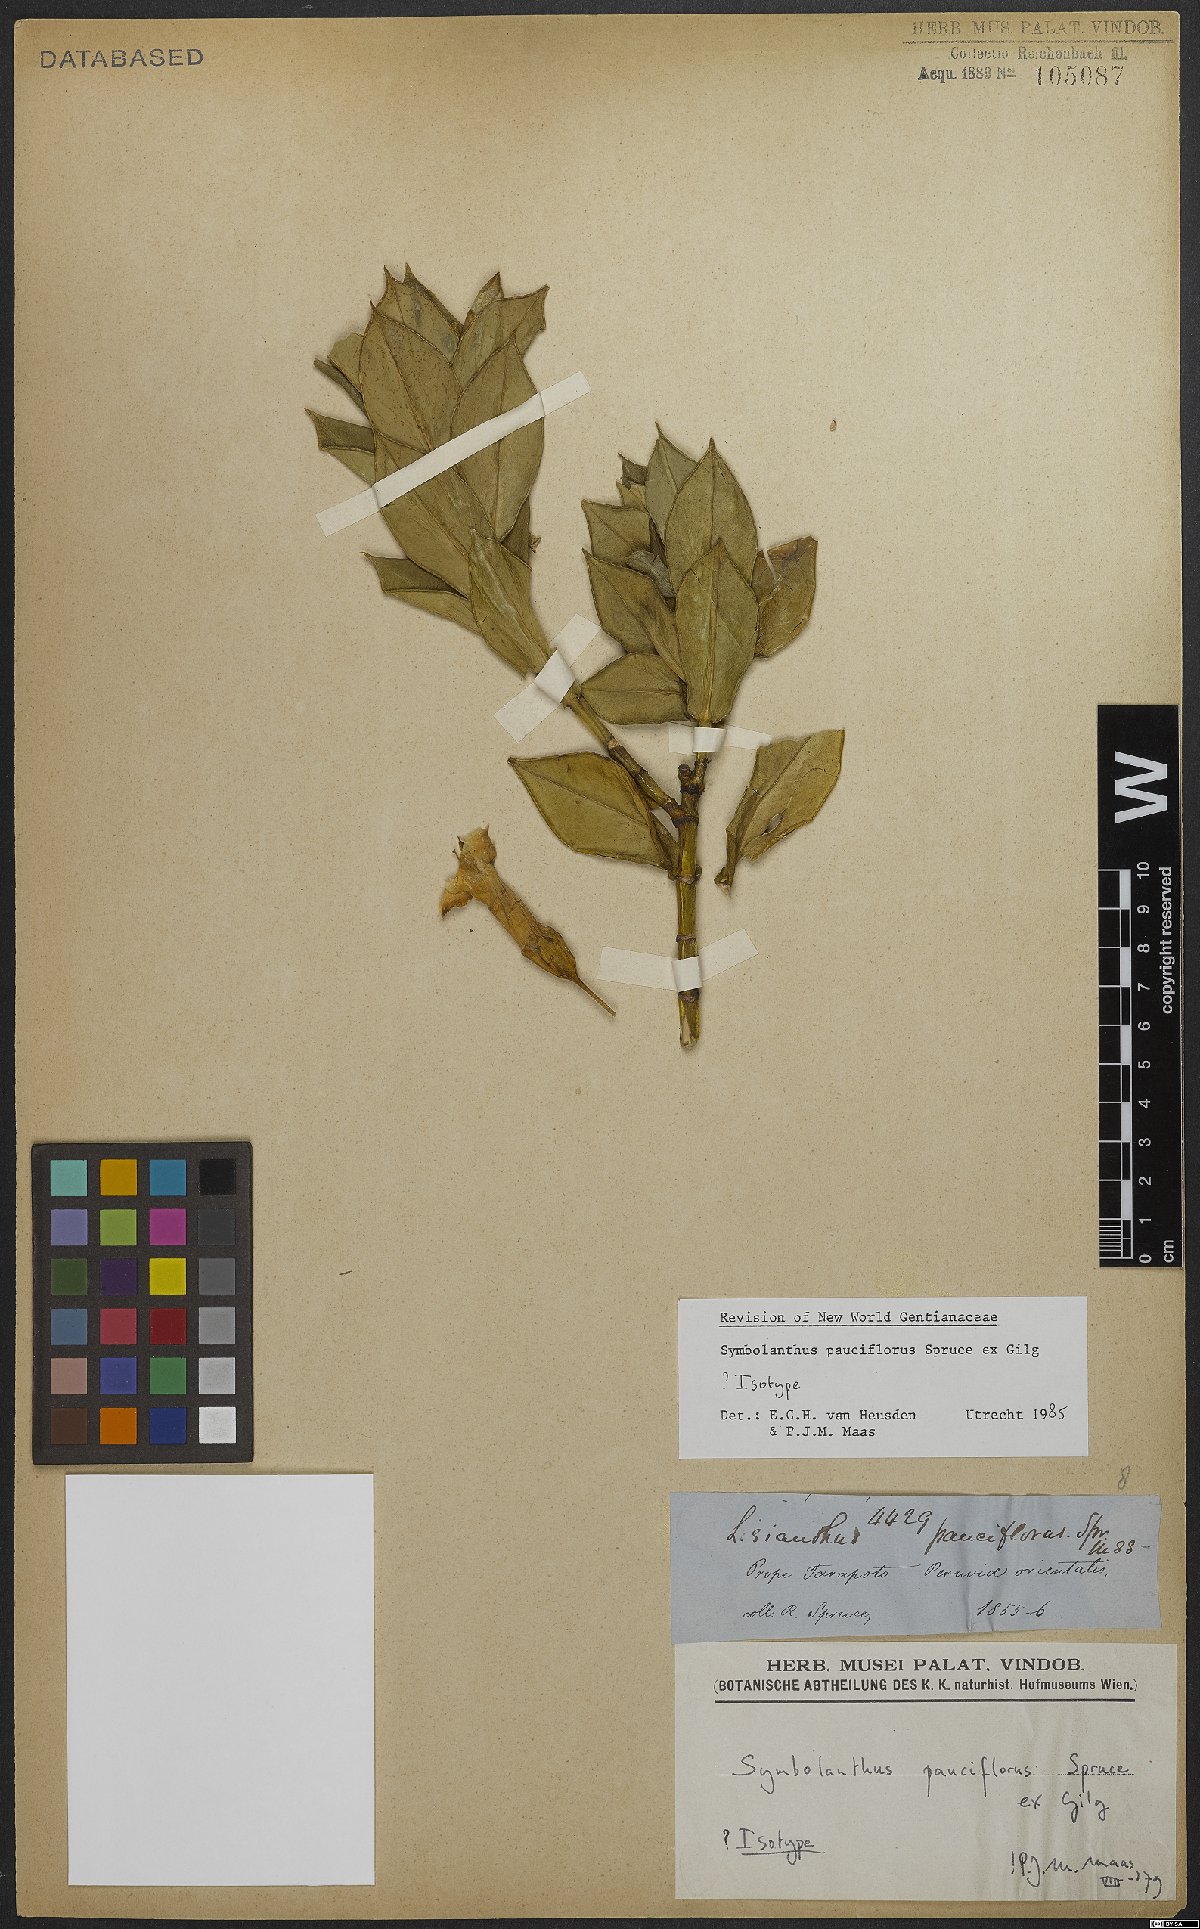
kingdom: Plantae
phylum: Tracheophyta
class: Magnoliopsida
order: Gentianales
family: Gentianaceae
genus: Symbolanthus
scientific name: Symbolanthus pauciflorus
